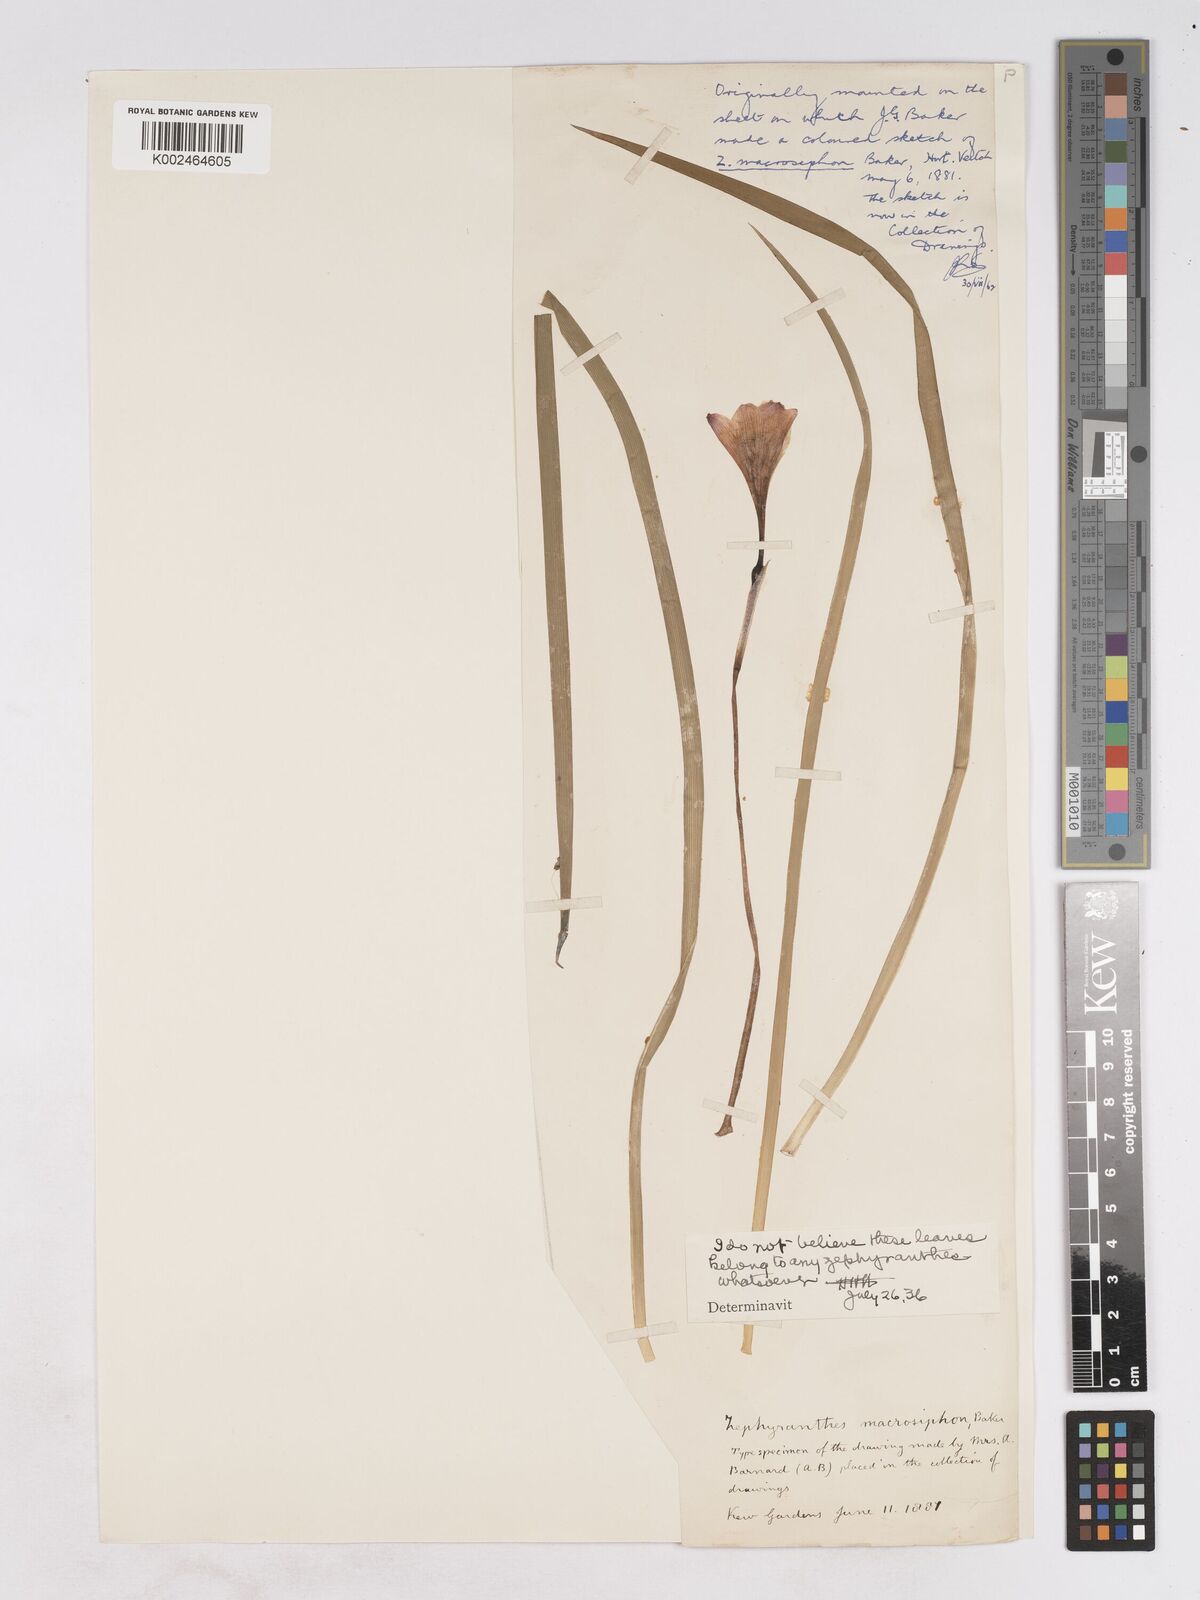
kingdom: Plantae
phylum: Tracheophyta
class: Liliopsida
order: Asparagales
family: Amaryllidaceae
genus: Zephyranthes
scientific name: Zephyranthes macrosiphon
